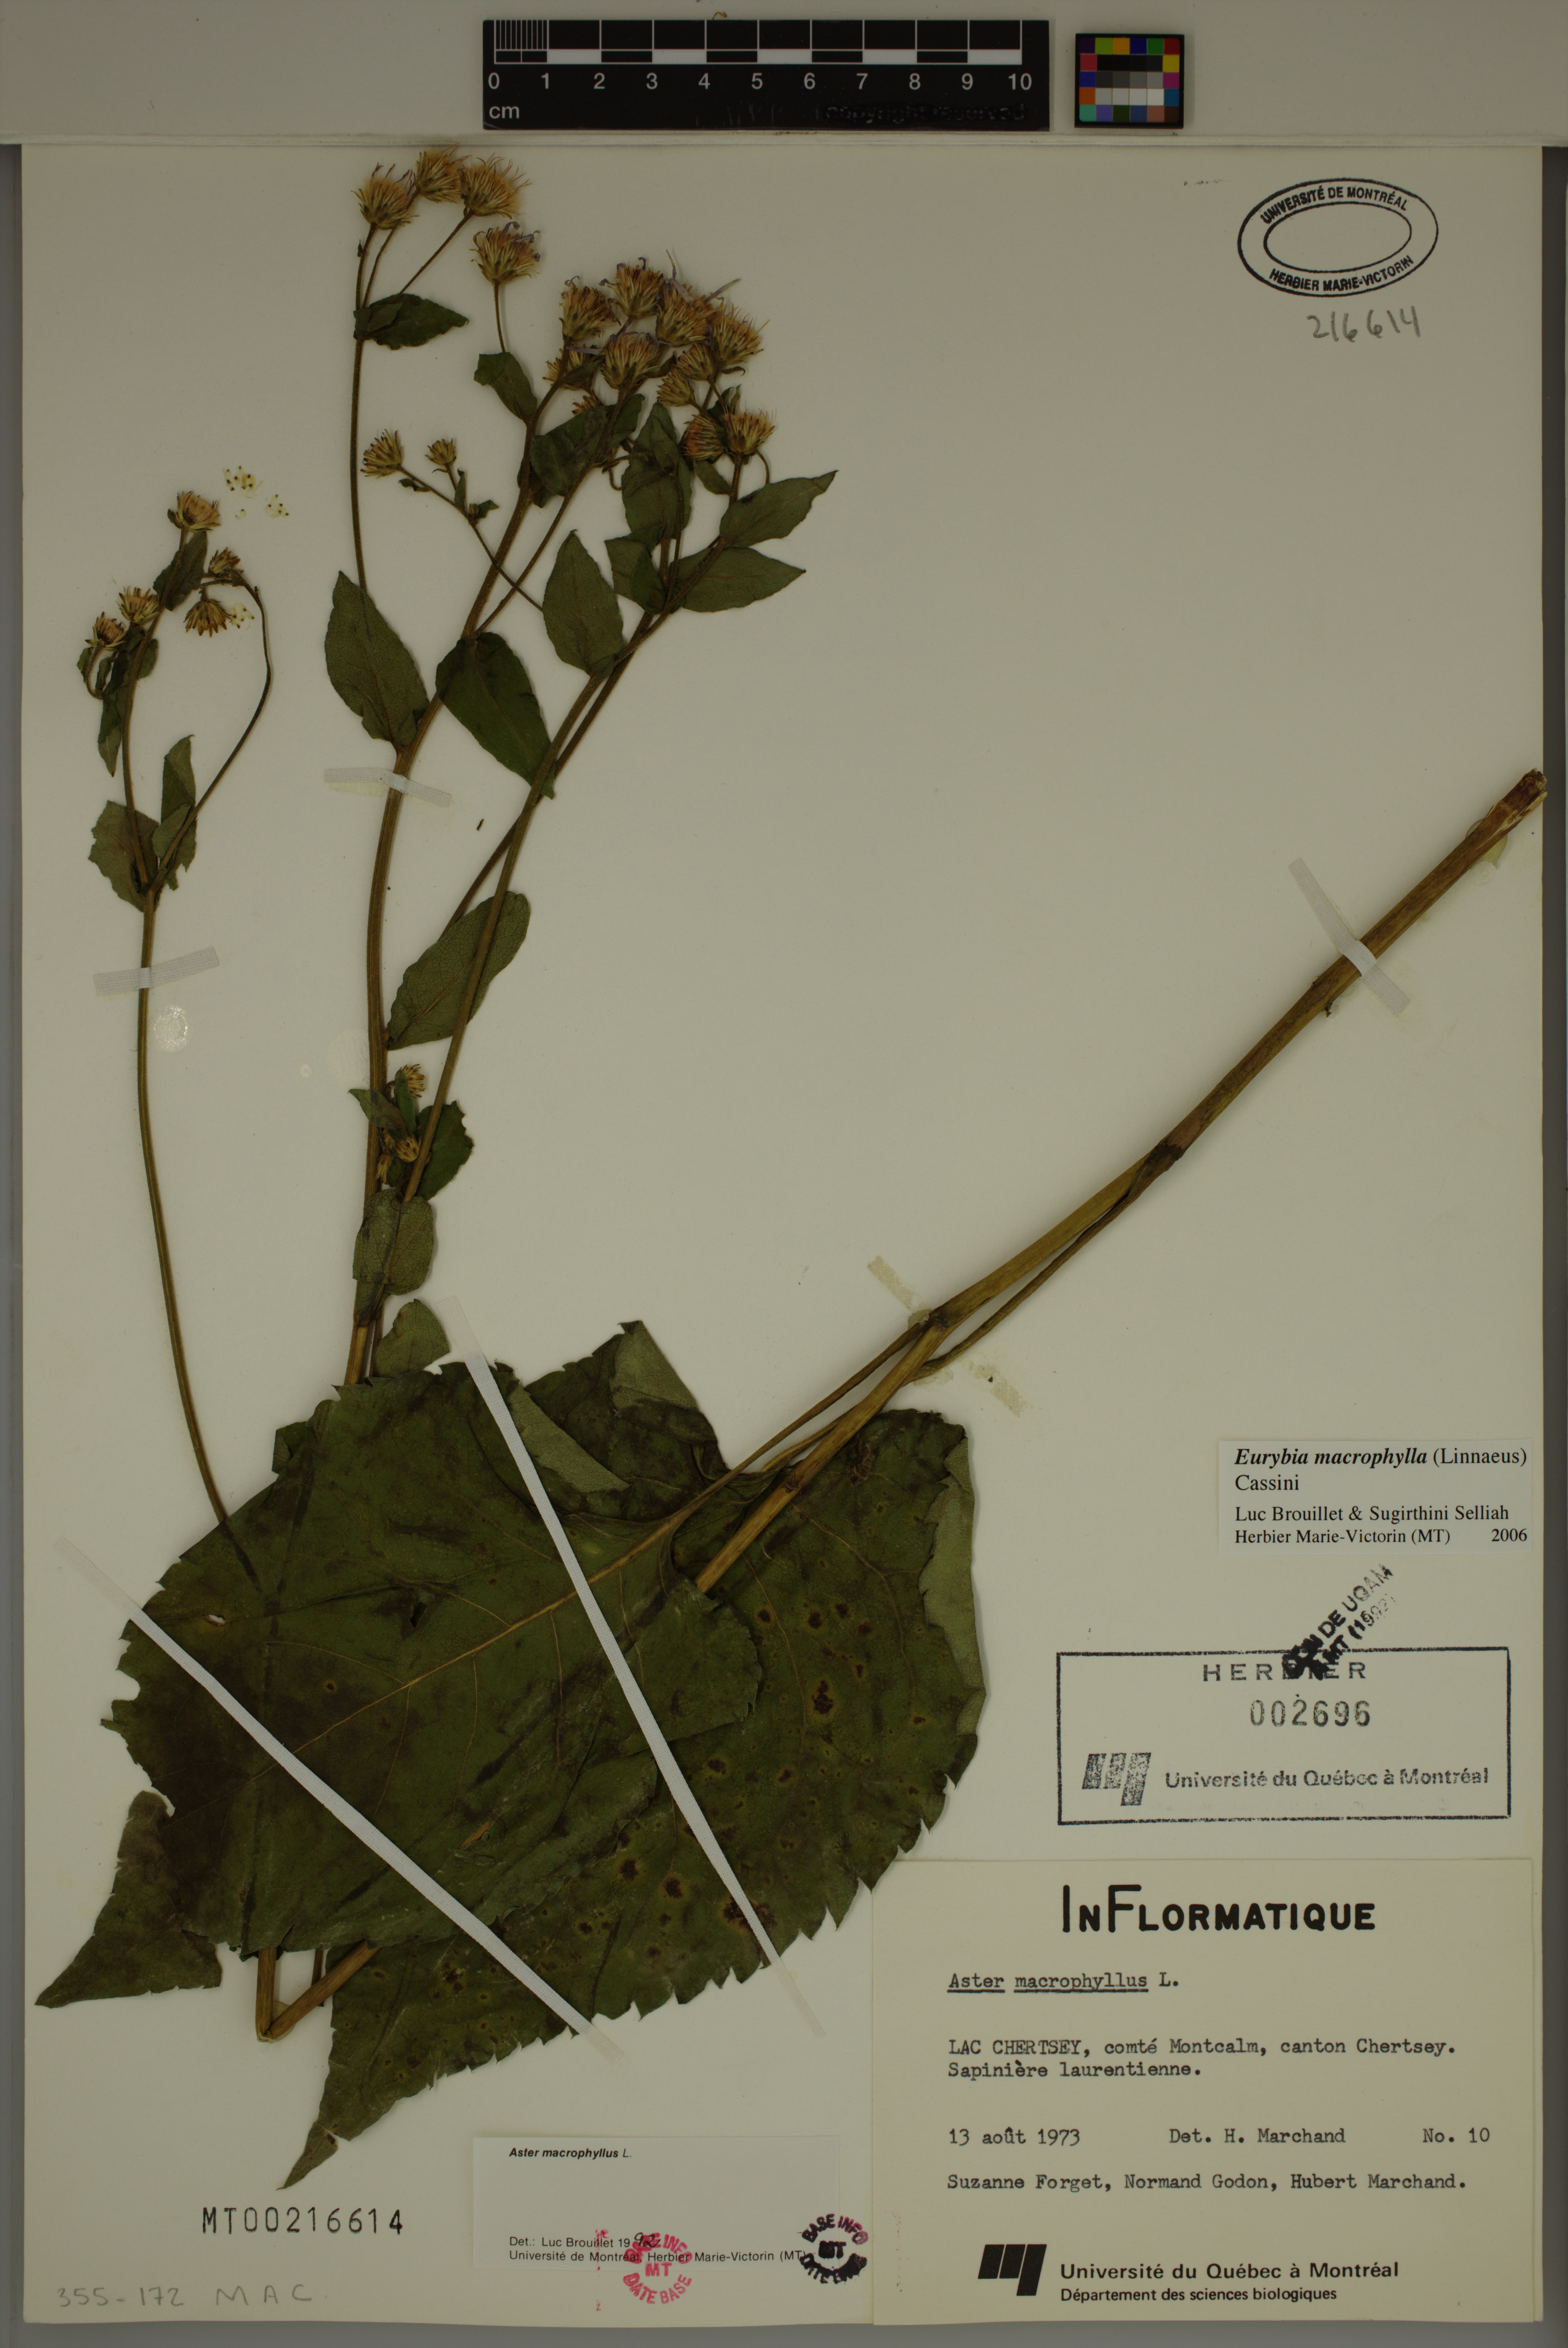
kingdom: Plantae
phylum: Tracheophyta
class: Magnoliopsida
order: Asterales
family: Asteraceae
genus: Eurybia
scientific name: Eurybia macrophylla
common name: Big-leaved aster
